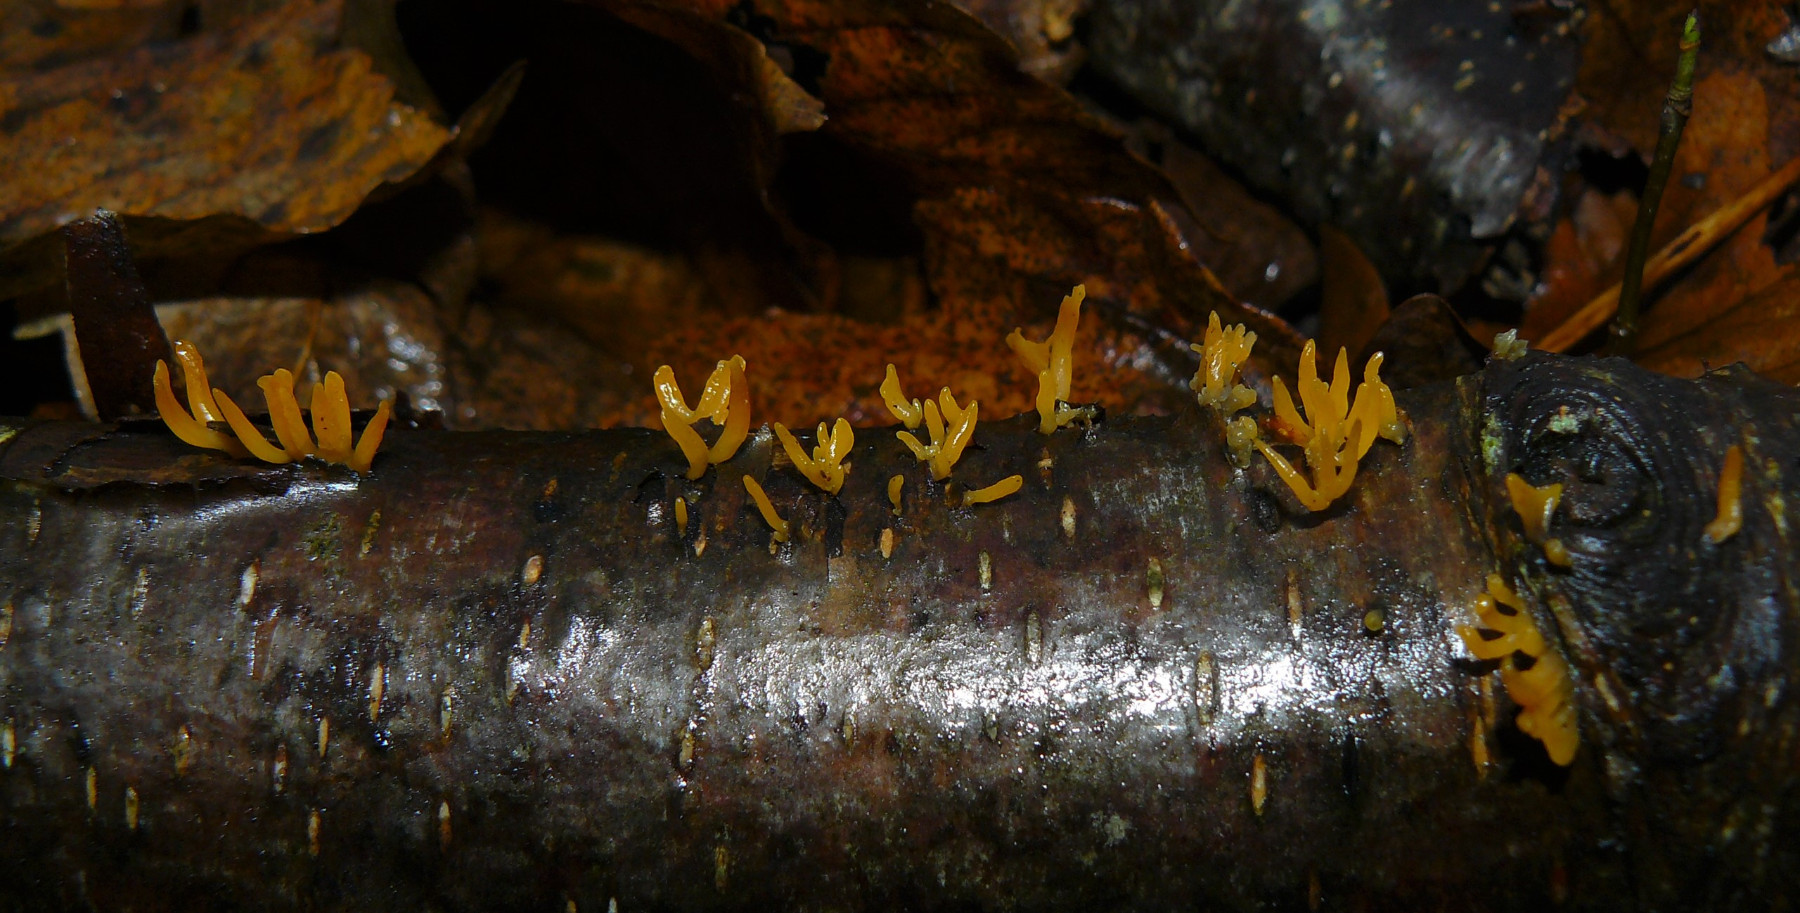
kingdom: Fungi
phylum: Basidiomycota
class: Dacrymycetes
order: Dacrymycetales
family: Dacrymycetaceae
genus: Calocera
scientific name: Calocera cornea
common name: liden guldgaffel
